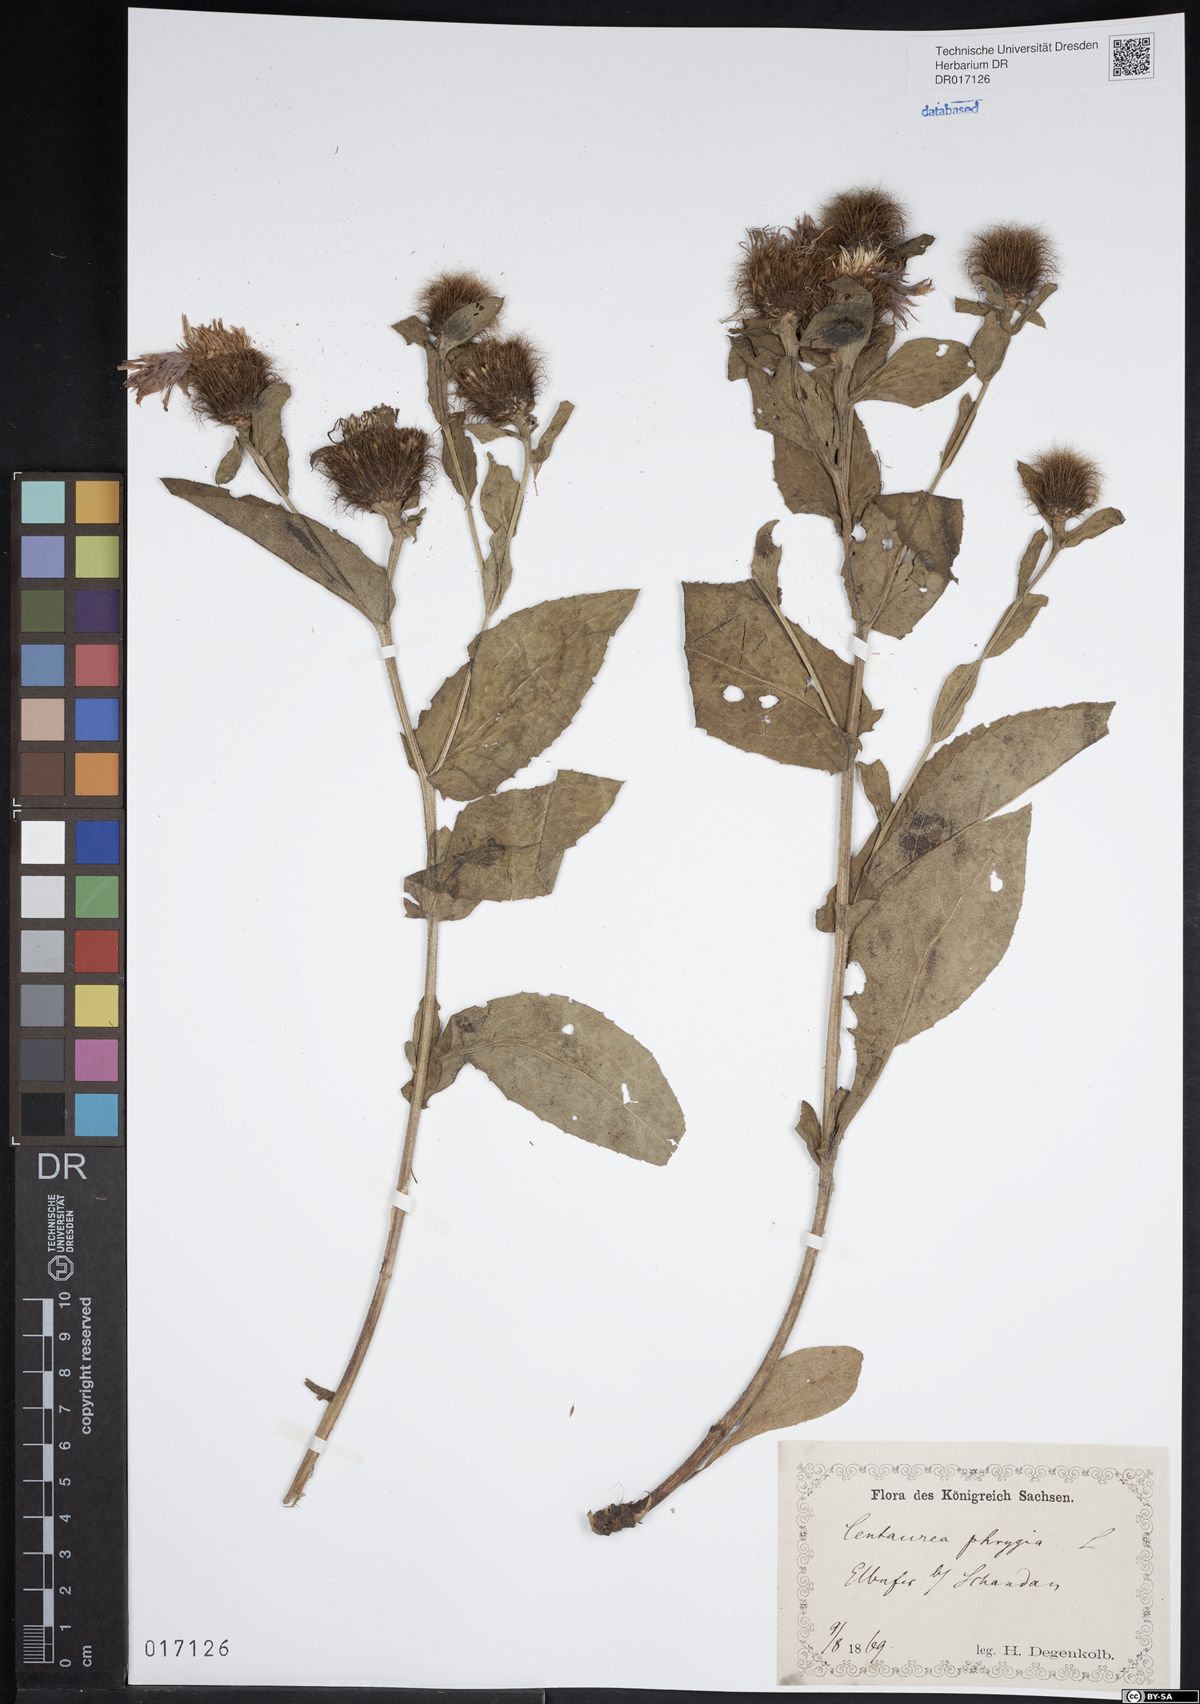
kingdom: Plantae
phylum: Tracheophyta
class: Magnoliopsida
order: Asterales
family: Asteraceae
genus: Centaurea
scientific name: Centaurea pseudophrygia
